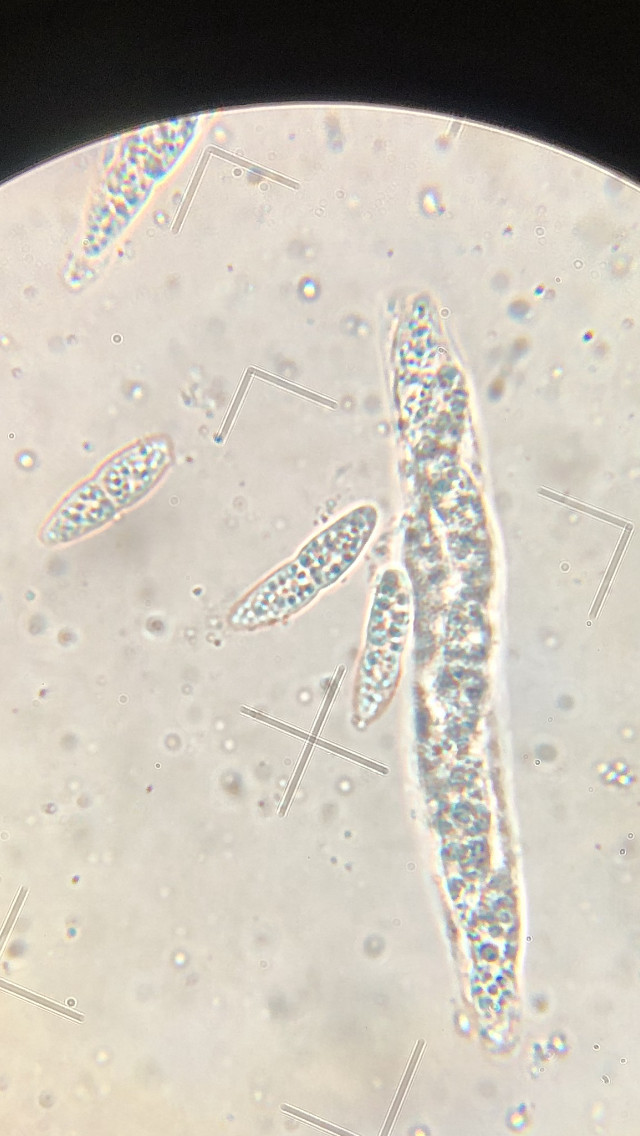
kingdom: Fungi
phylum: Ascomycota
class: Sordariomycetes
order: Diaporthales
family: Erythrogloeaceae
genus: Dendrostoma
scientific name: Dendrostoma leiphaemia
